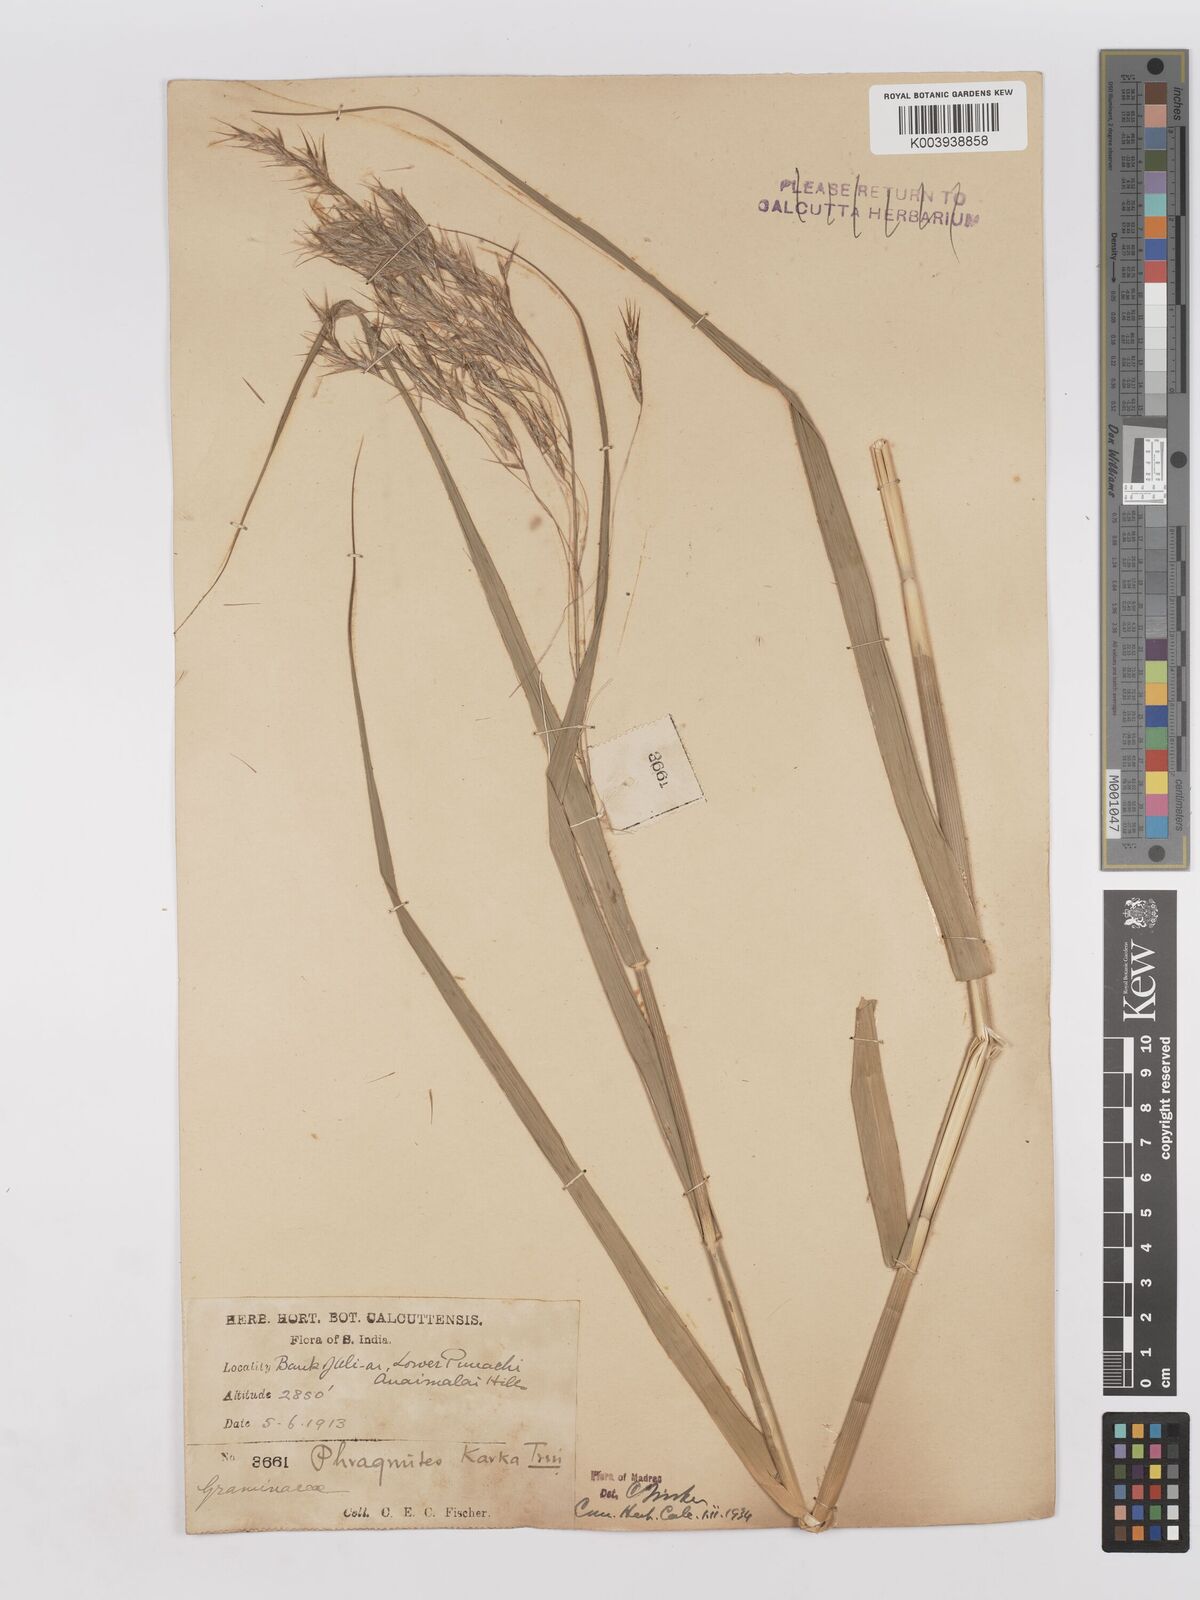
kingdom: Plantae
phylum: Tracheophyta
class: Liliopsida
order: Poales
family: Poaceae
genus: Phragmites
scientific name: Phragmites karka
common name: Tropical reed
